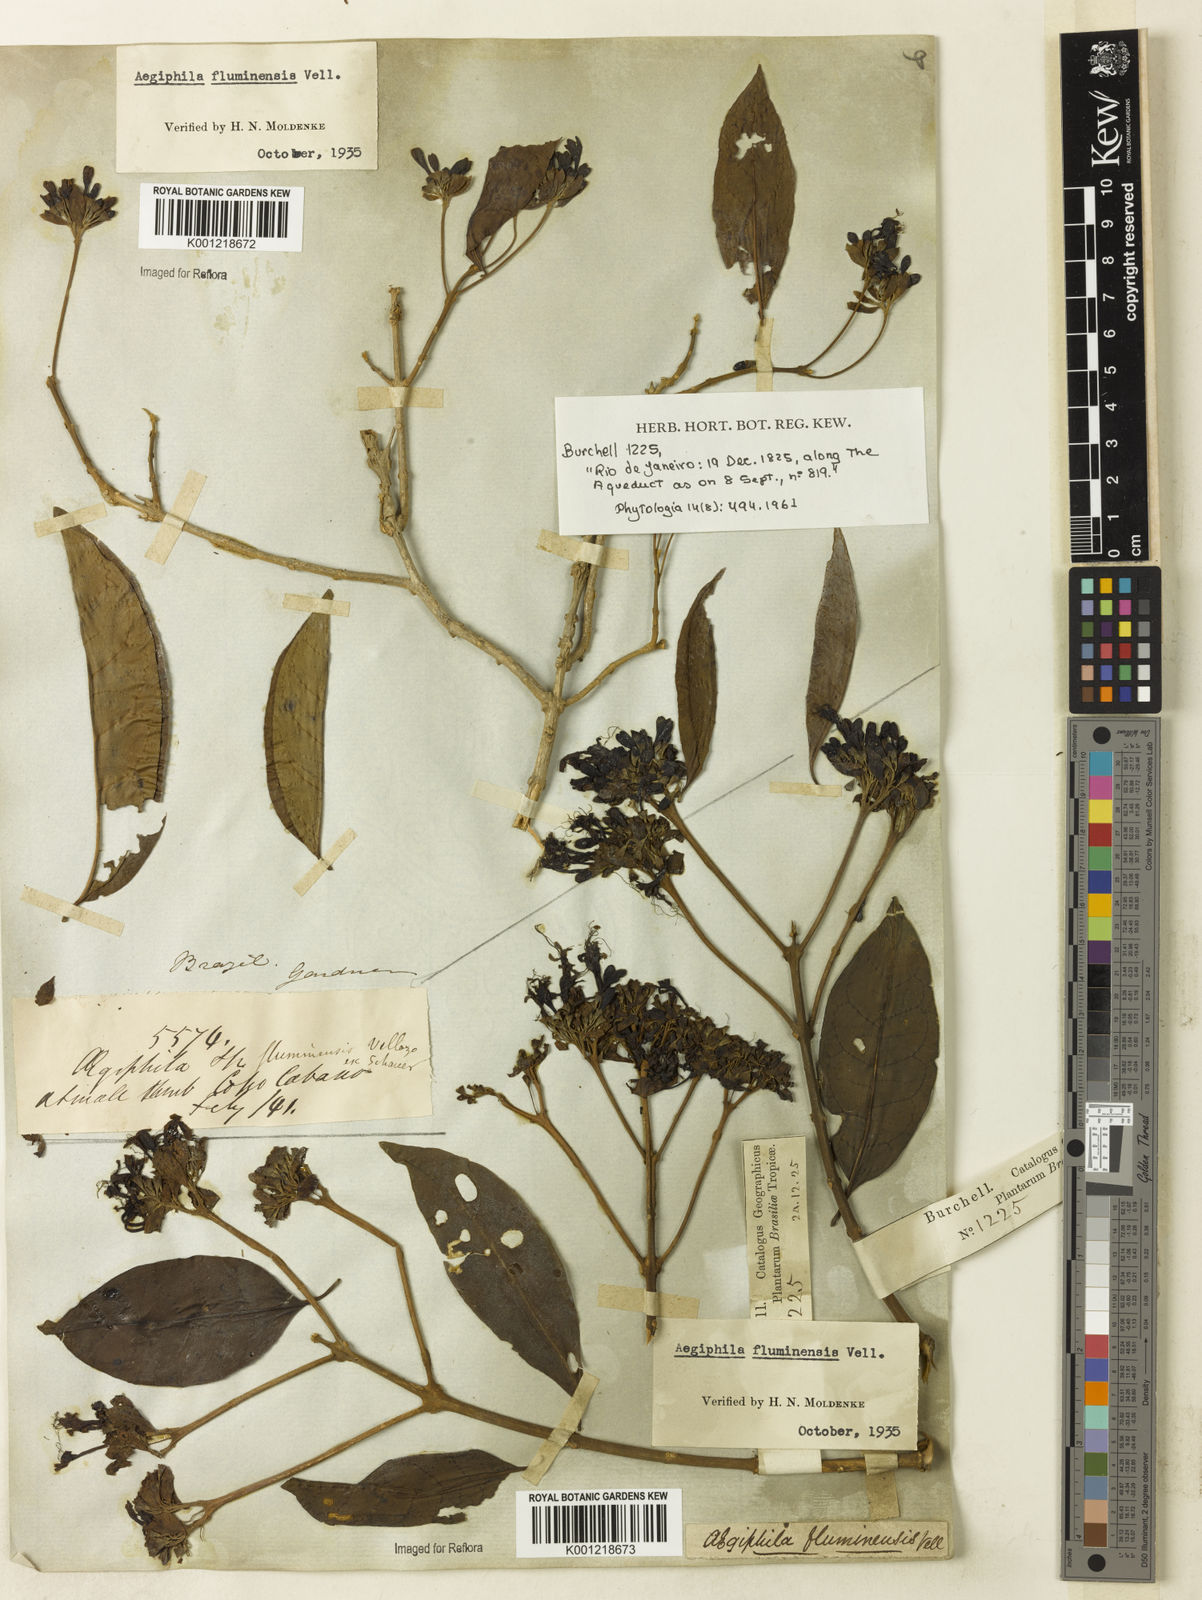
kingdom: Plantae
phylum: Tracheophyta
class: Magnoliopsida
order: Lamiales
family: Lamiaceae
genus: Aegiphila
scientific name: Aegiphila fluminensis
